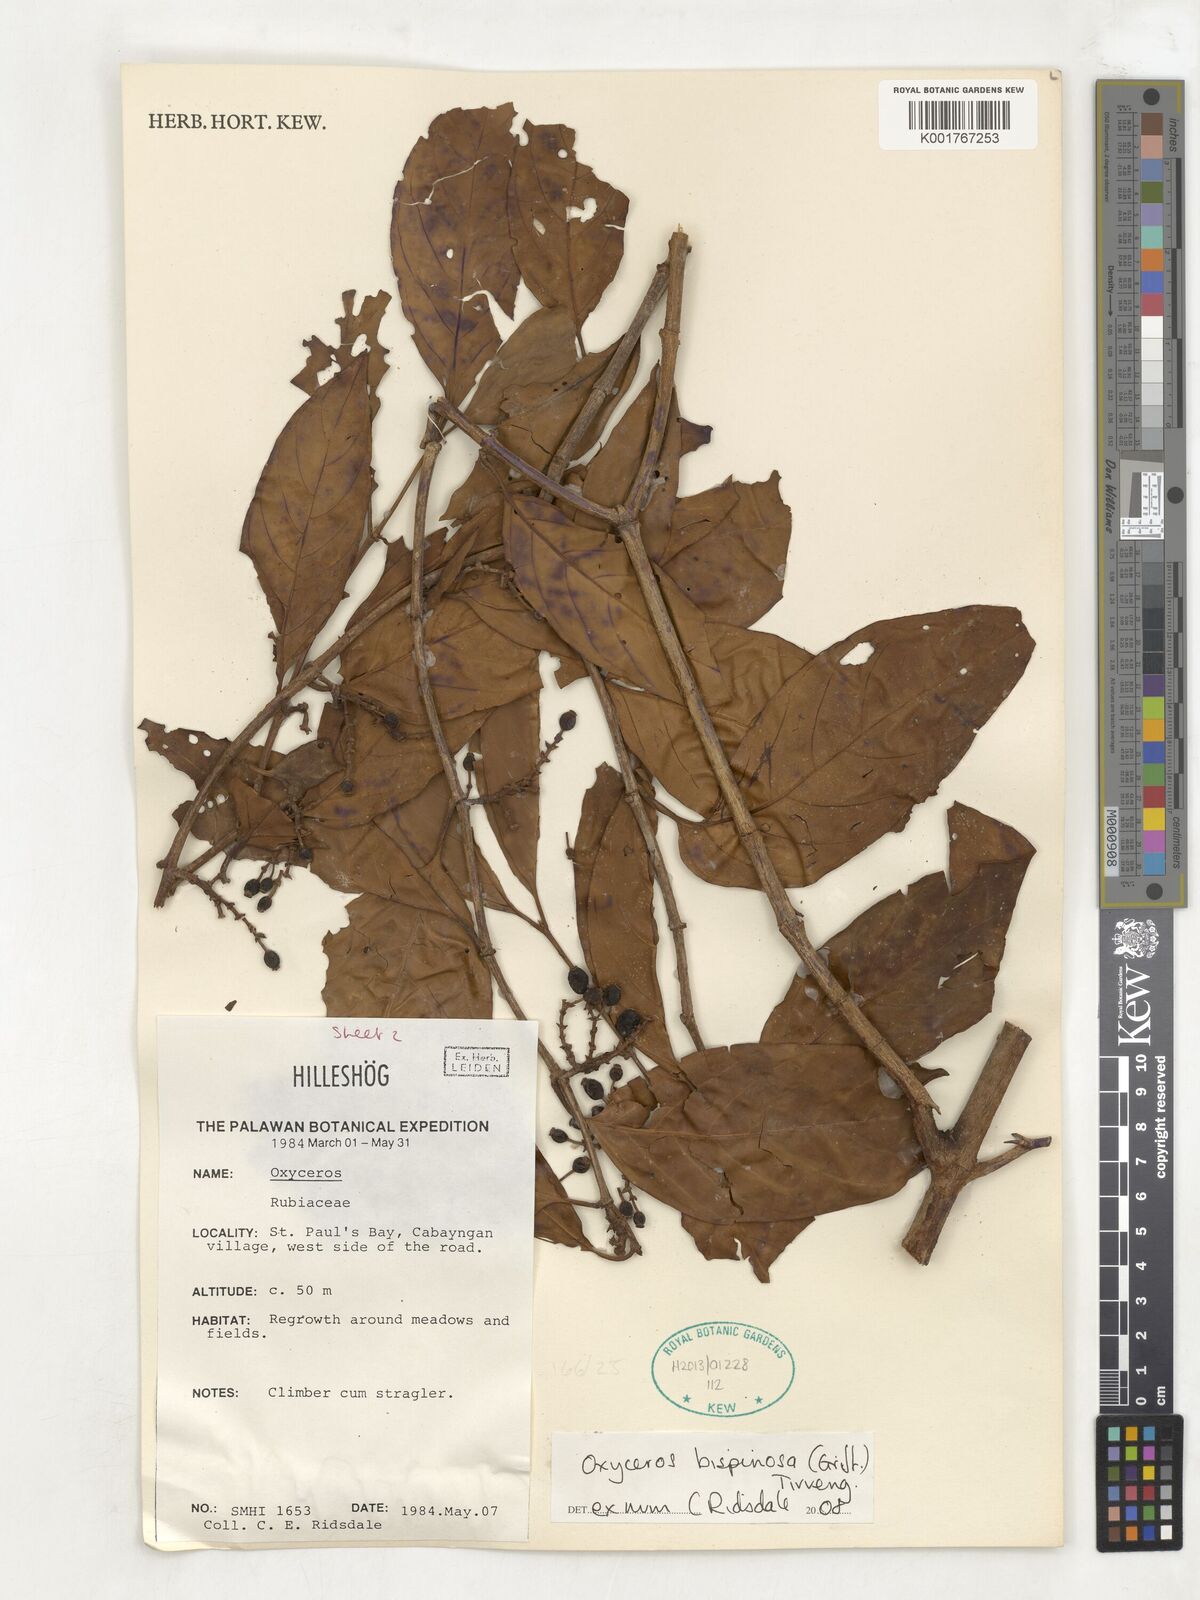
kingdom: Plantae
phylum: Tracheophyta
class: Magnoliopsida
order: Gentianales
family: Rubiaceae
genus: Oxyceros
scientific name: Oxyceros bispinosus
